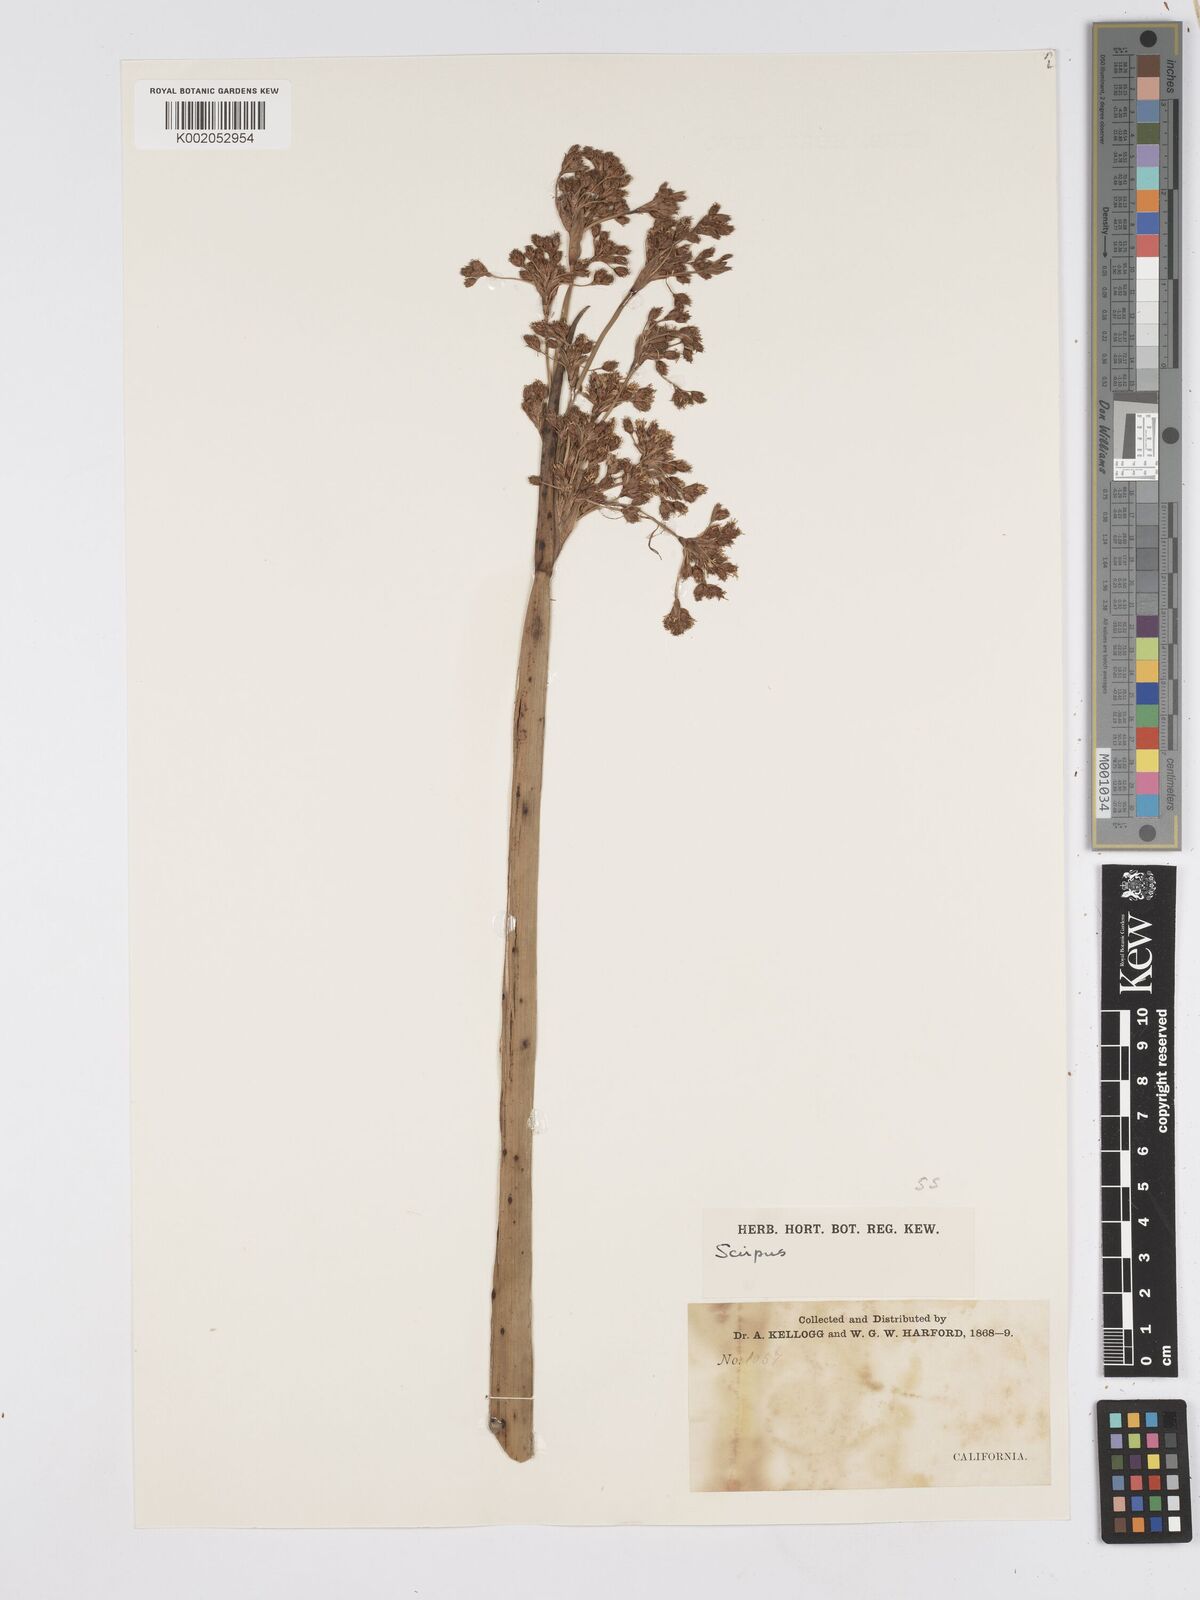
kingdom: Plantae
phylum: Tracheophyta
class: Liliopsida
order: Poales
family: Cyperaceae
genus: Scirpus
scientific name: Scirpus
